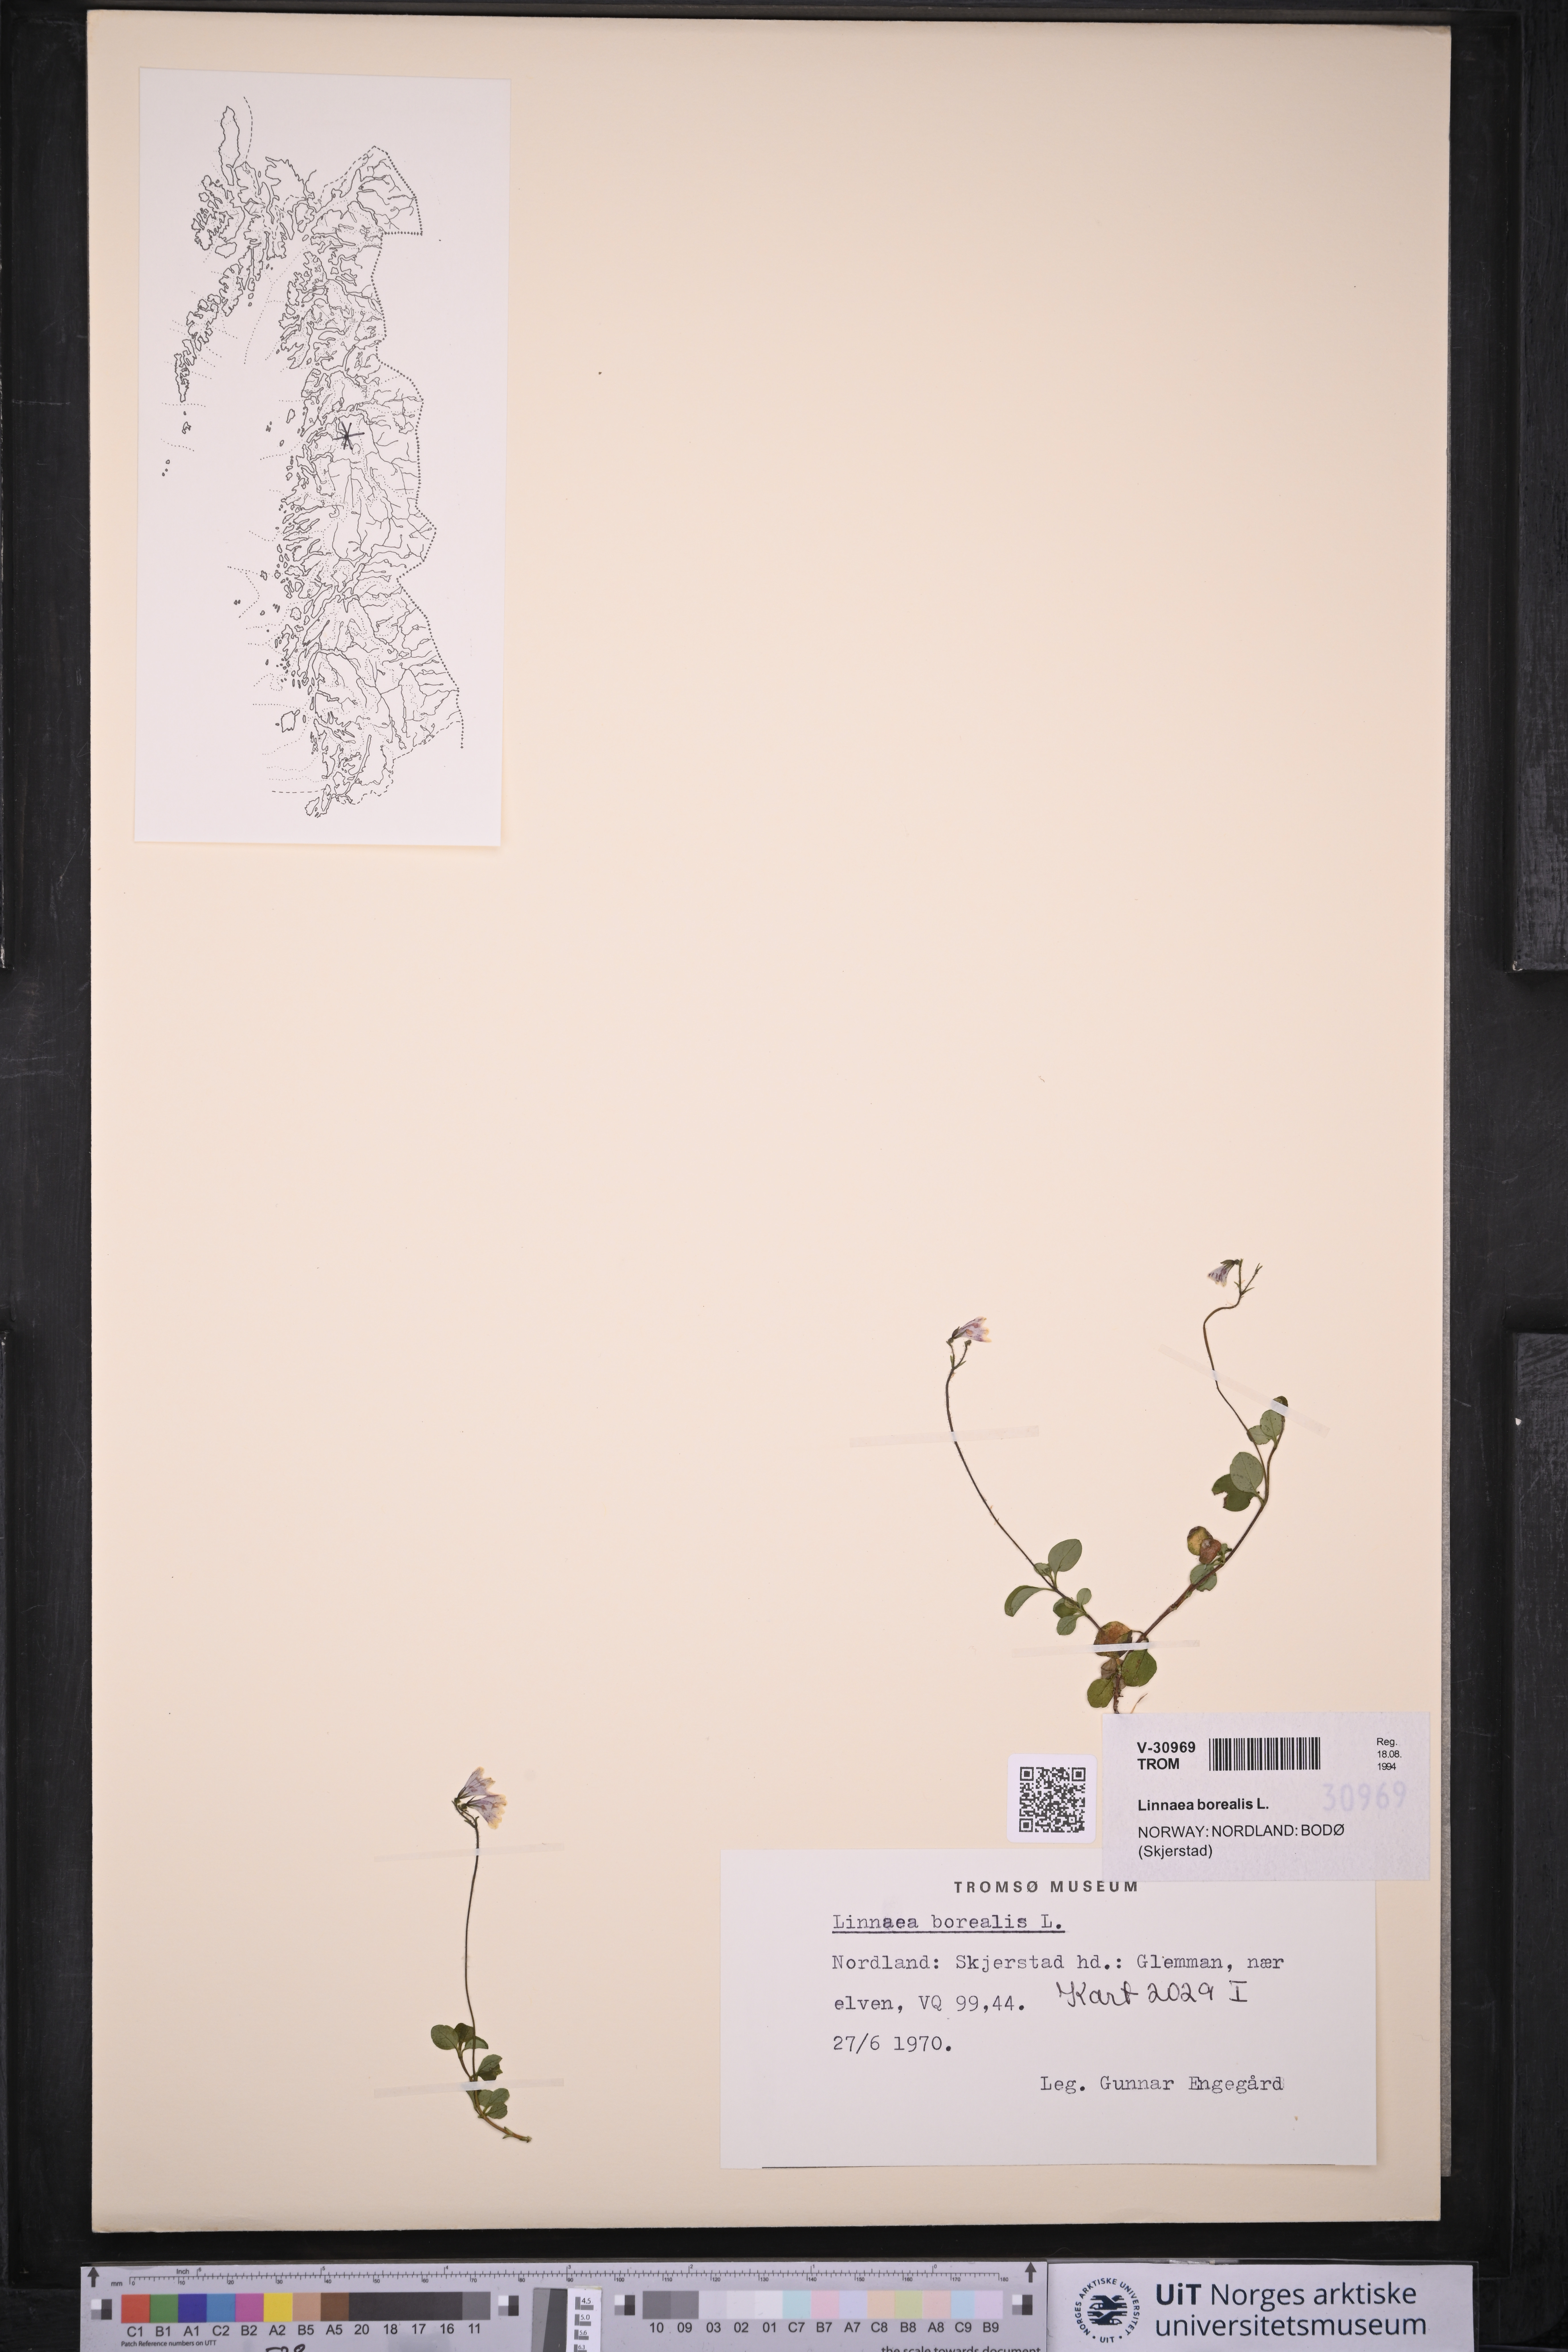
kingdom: Plantae
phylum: Tracheophyta
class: Magnoliopsida
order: Dipsacales
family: Caprifoliaceae
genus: Linnaea
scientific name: Linnaea borealis
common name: Twinflower
